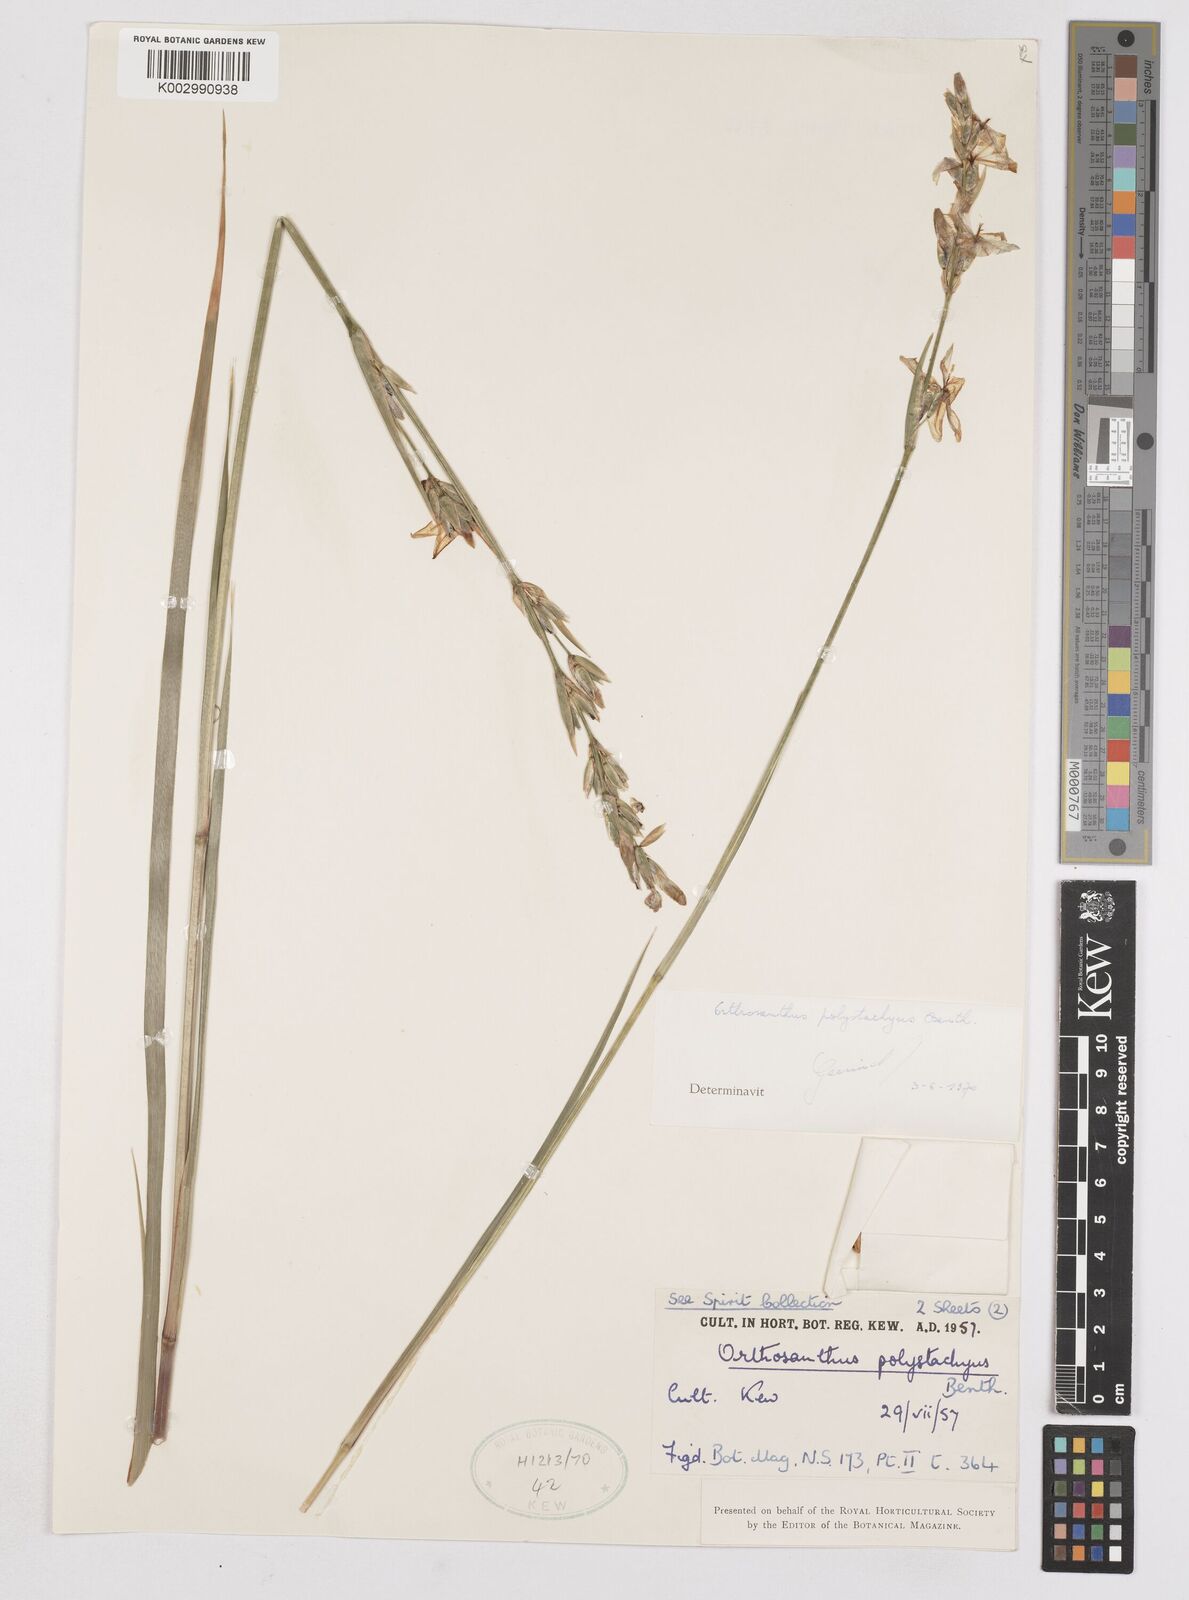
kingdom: Plantae
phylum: Tracheophyta
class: Liliopsida
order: Asparagales
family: Iridaceae
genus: Orthrosanthus
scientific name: Orthrosanthus polystachyus
